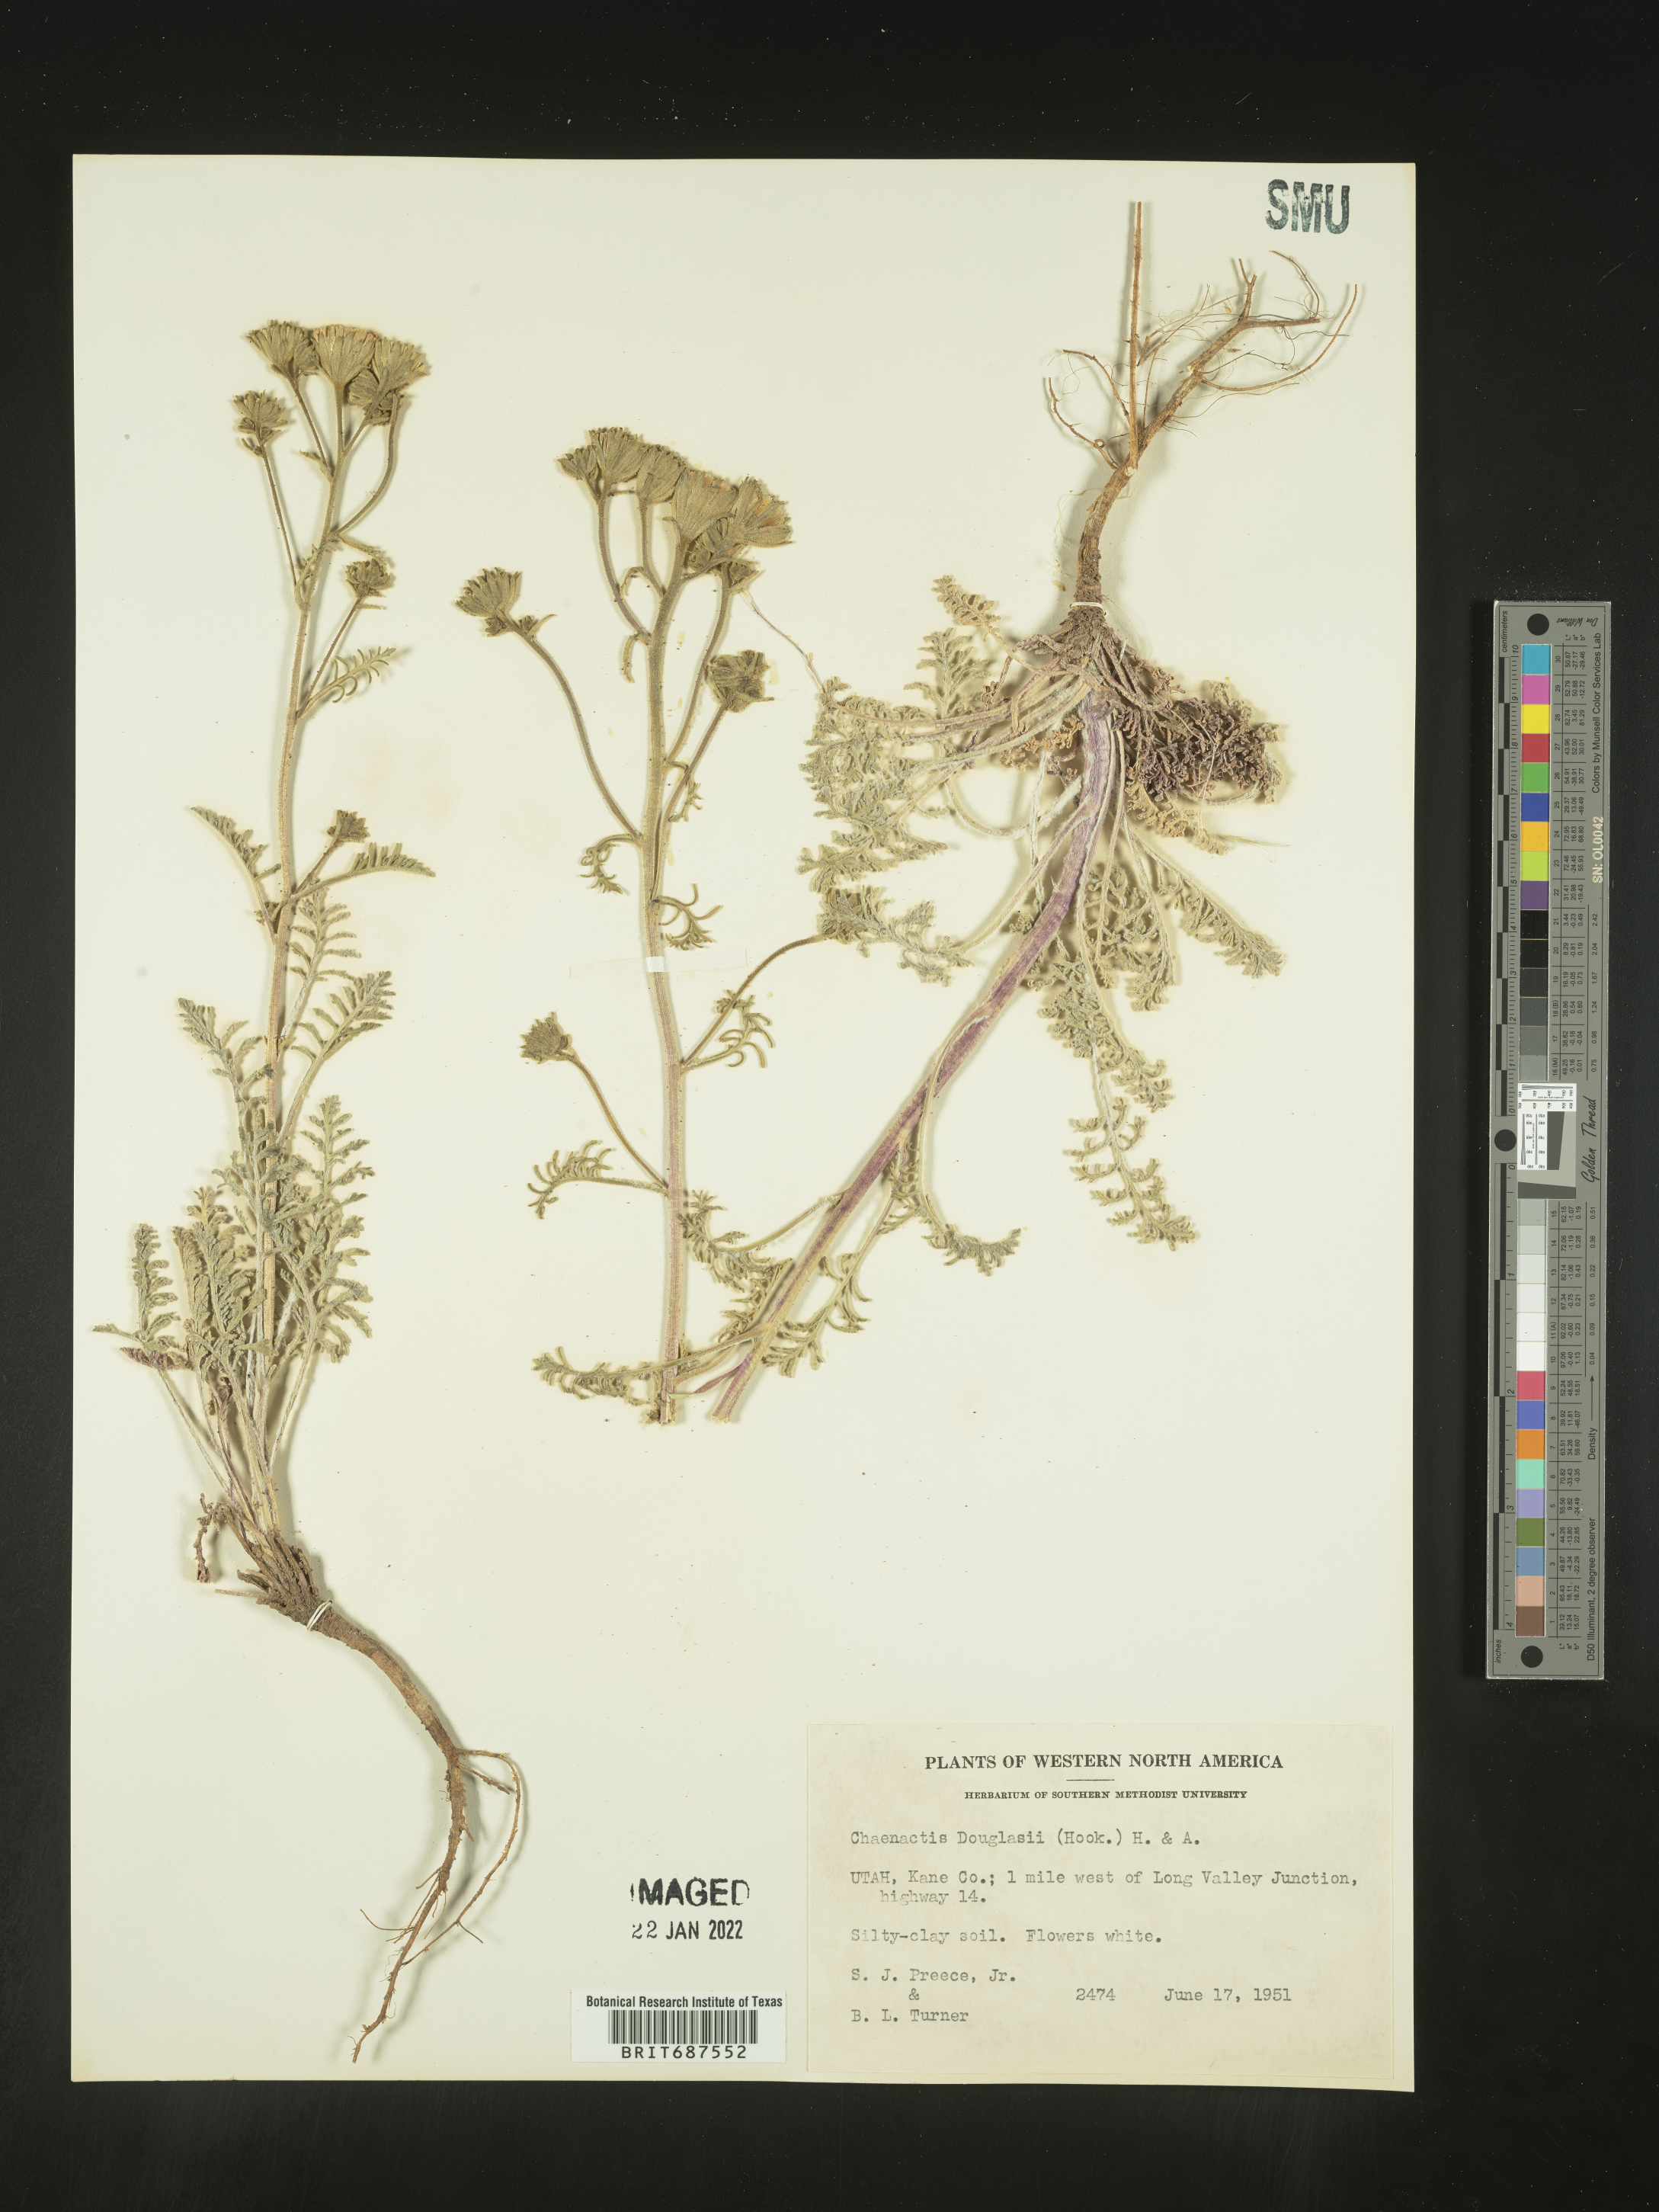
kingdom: Plantae
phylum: Tracheophyta
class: Magnoliopsida
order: Asterales
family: Asteraceae
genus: Chaenactis
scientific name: Chaenactis douglasii
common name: Hoary pincushion
